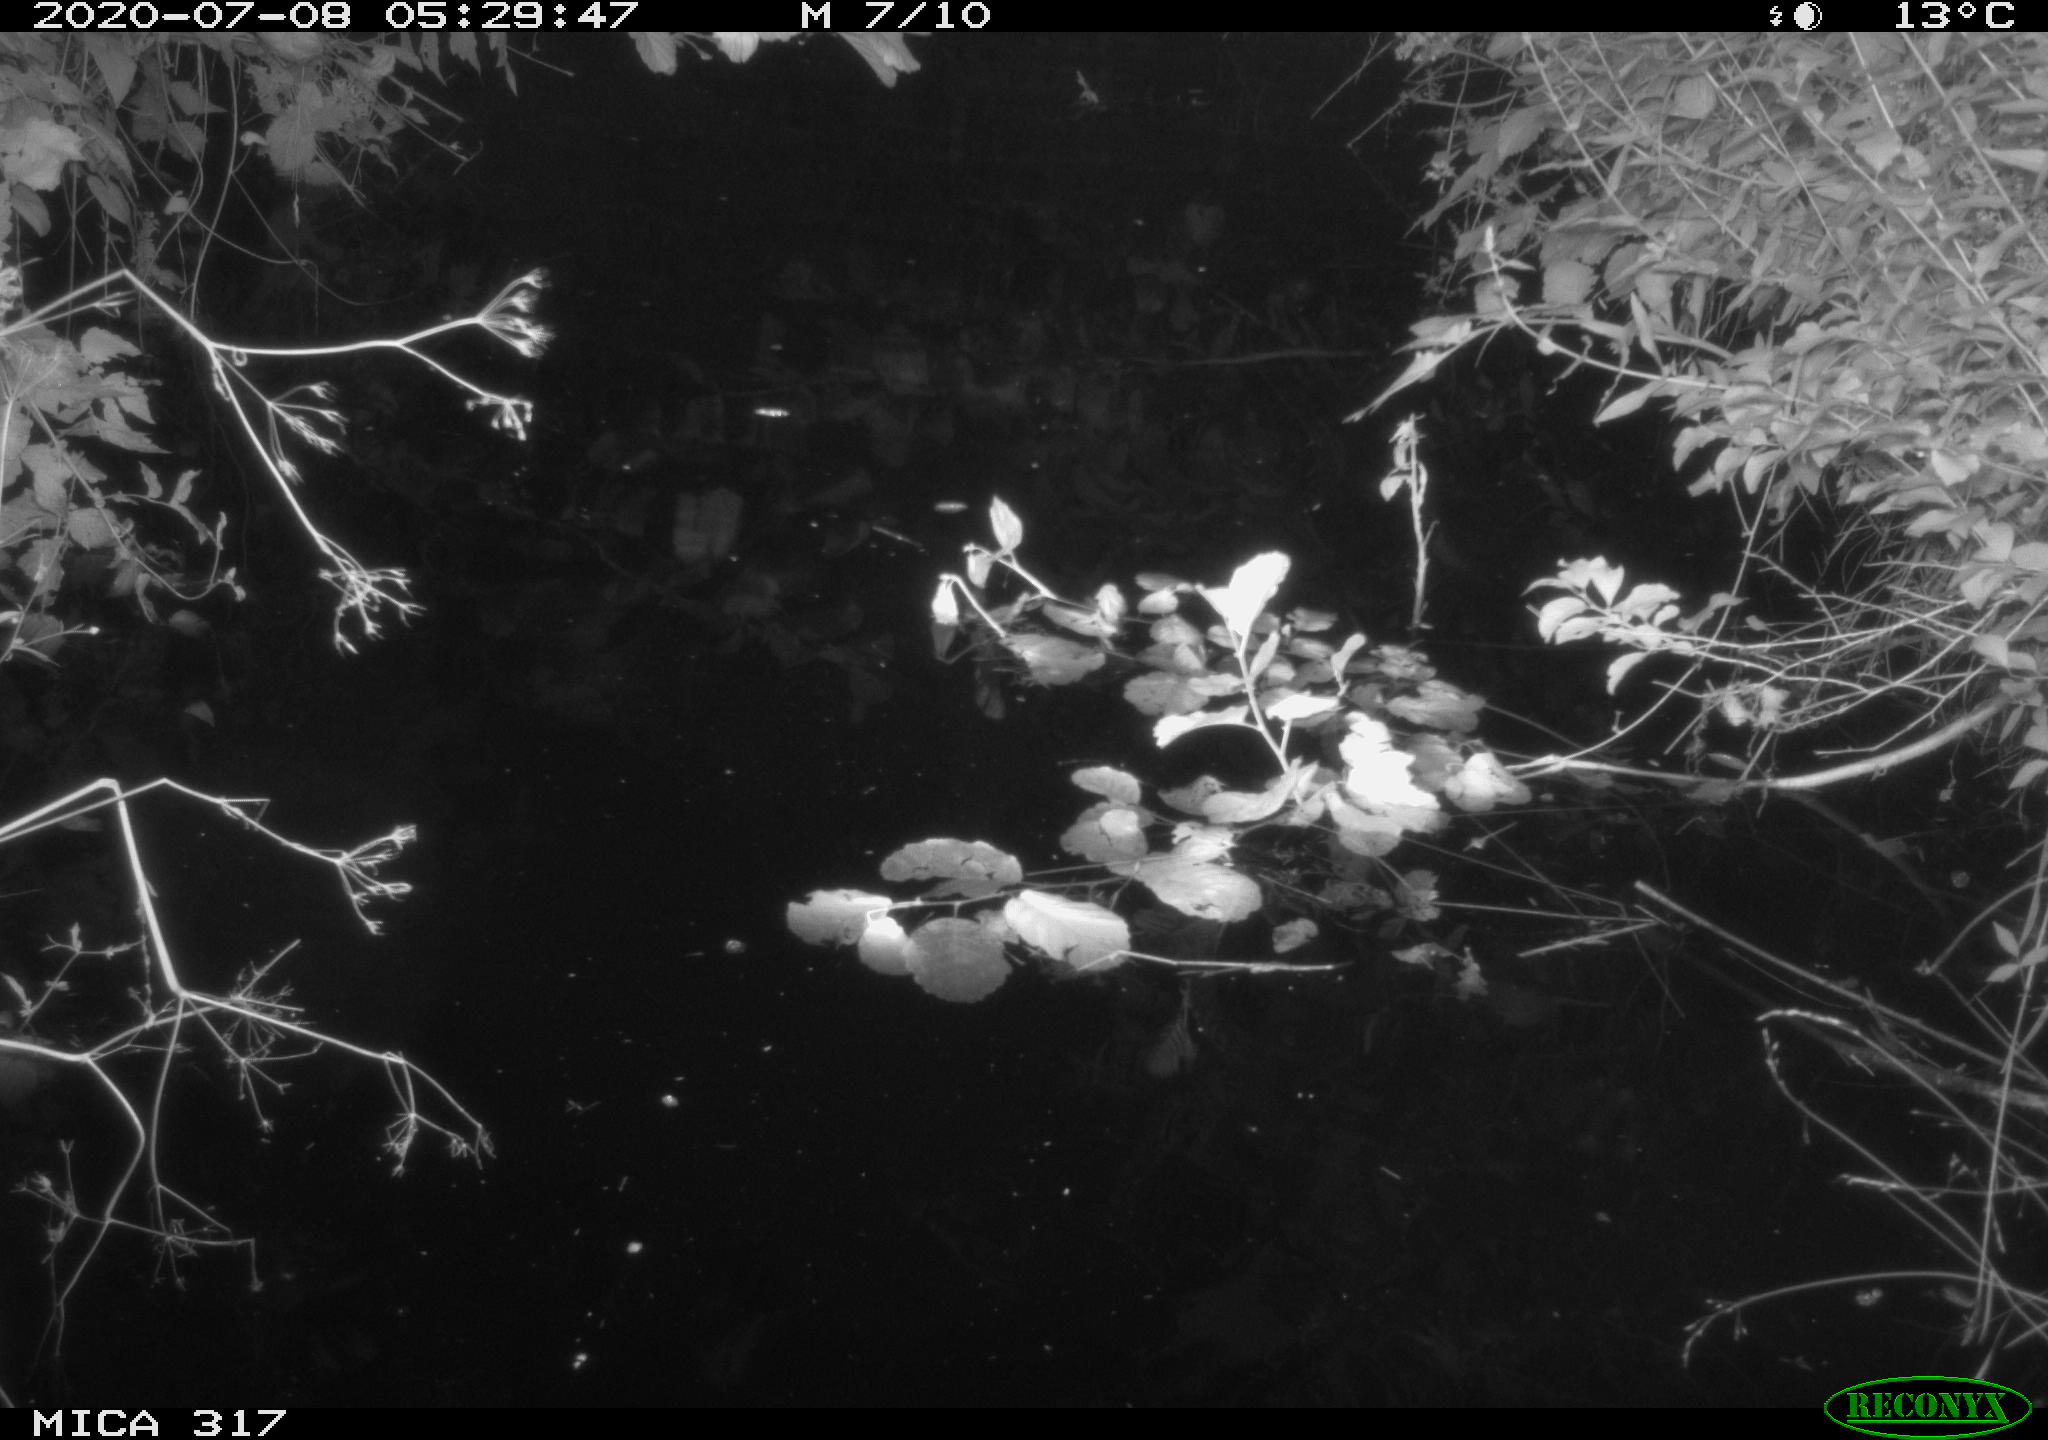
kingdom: Animalia
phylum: Chordata
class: Aves
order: Anseriformes
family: Anatidae
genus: Anas
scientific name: Anas platyrhynchos
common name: Mallard
